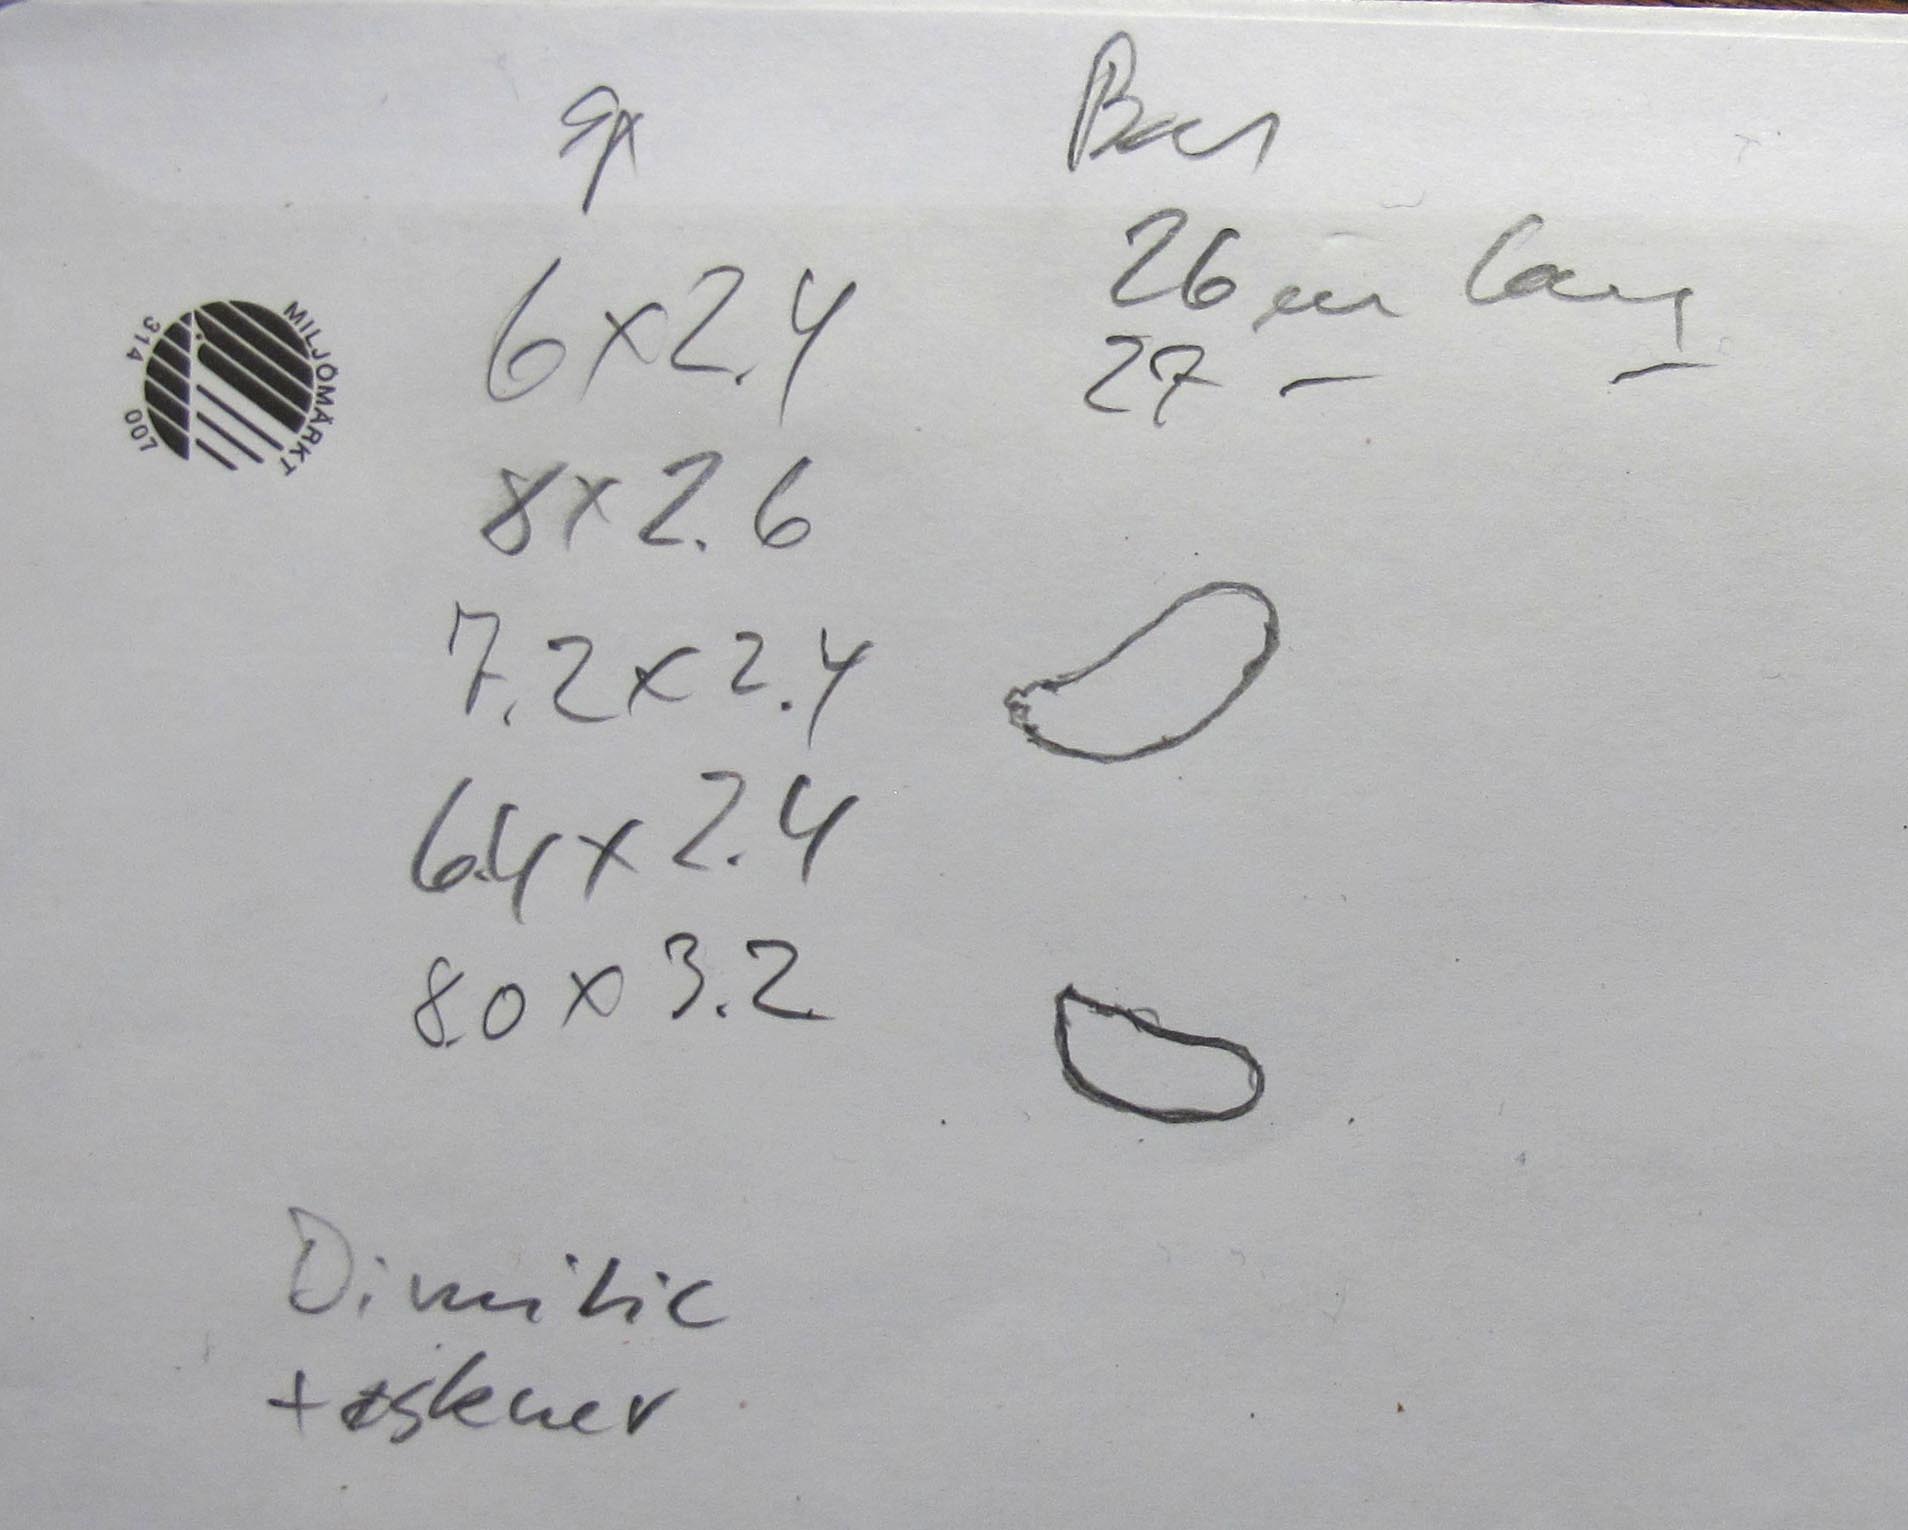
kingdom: Fungi
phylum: Basidiomycota
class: Agaricomycetes
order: Polyporales
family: Fomitopsidaceae
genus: Fomitopsis
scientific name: Fomitopsis
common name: fyrre-skiveporesvamp
